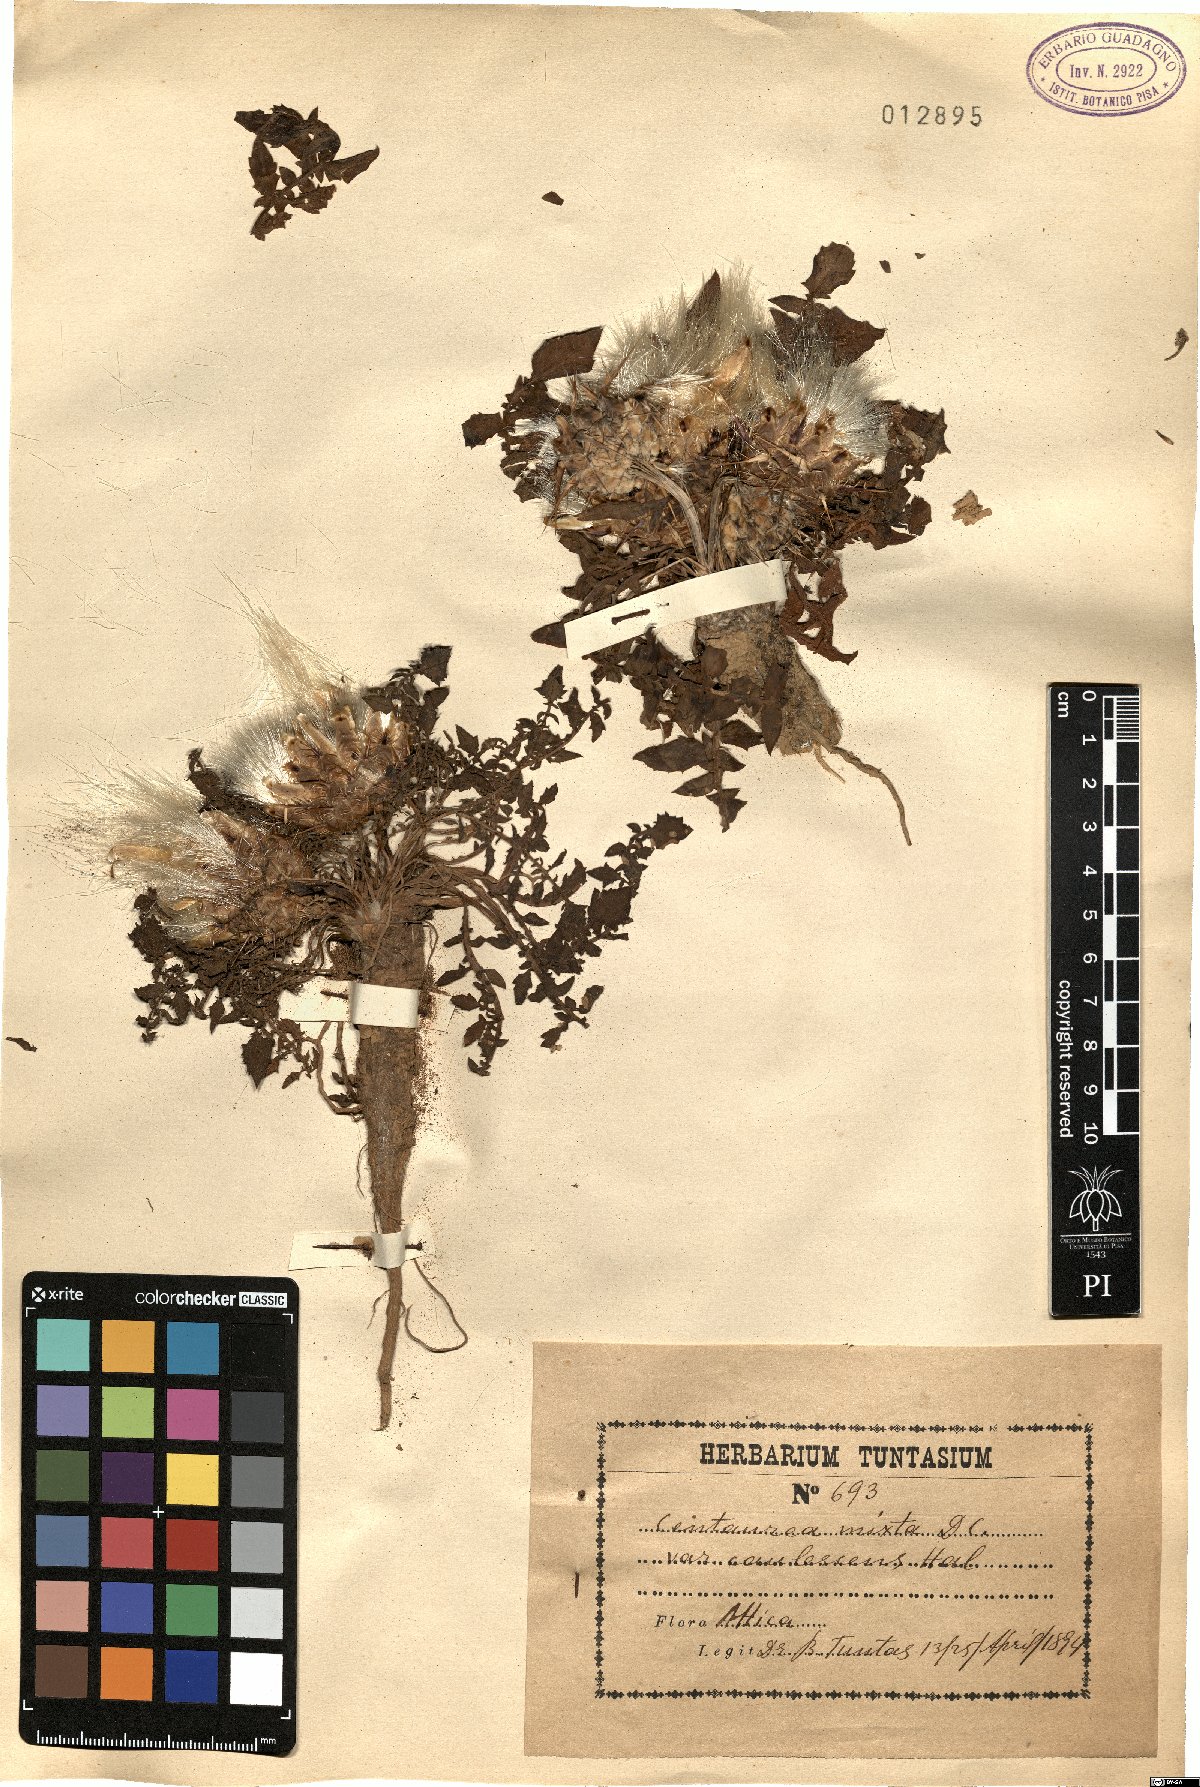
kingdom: Plantae
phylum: Tracheophyta
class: Magnoliopsida
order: Asterales
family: Asteraceae
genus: Centaurea
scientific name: Centaurea raphanina
